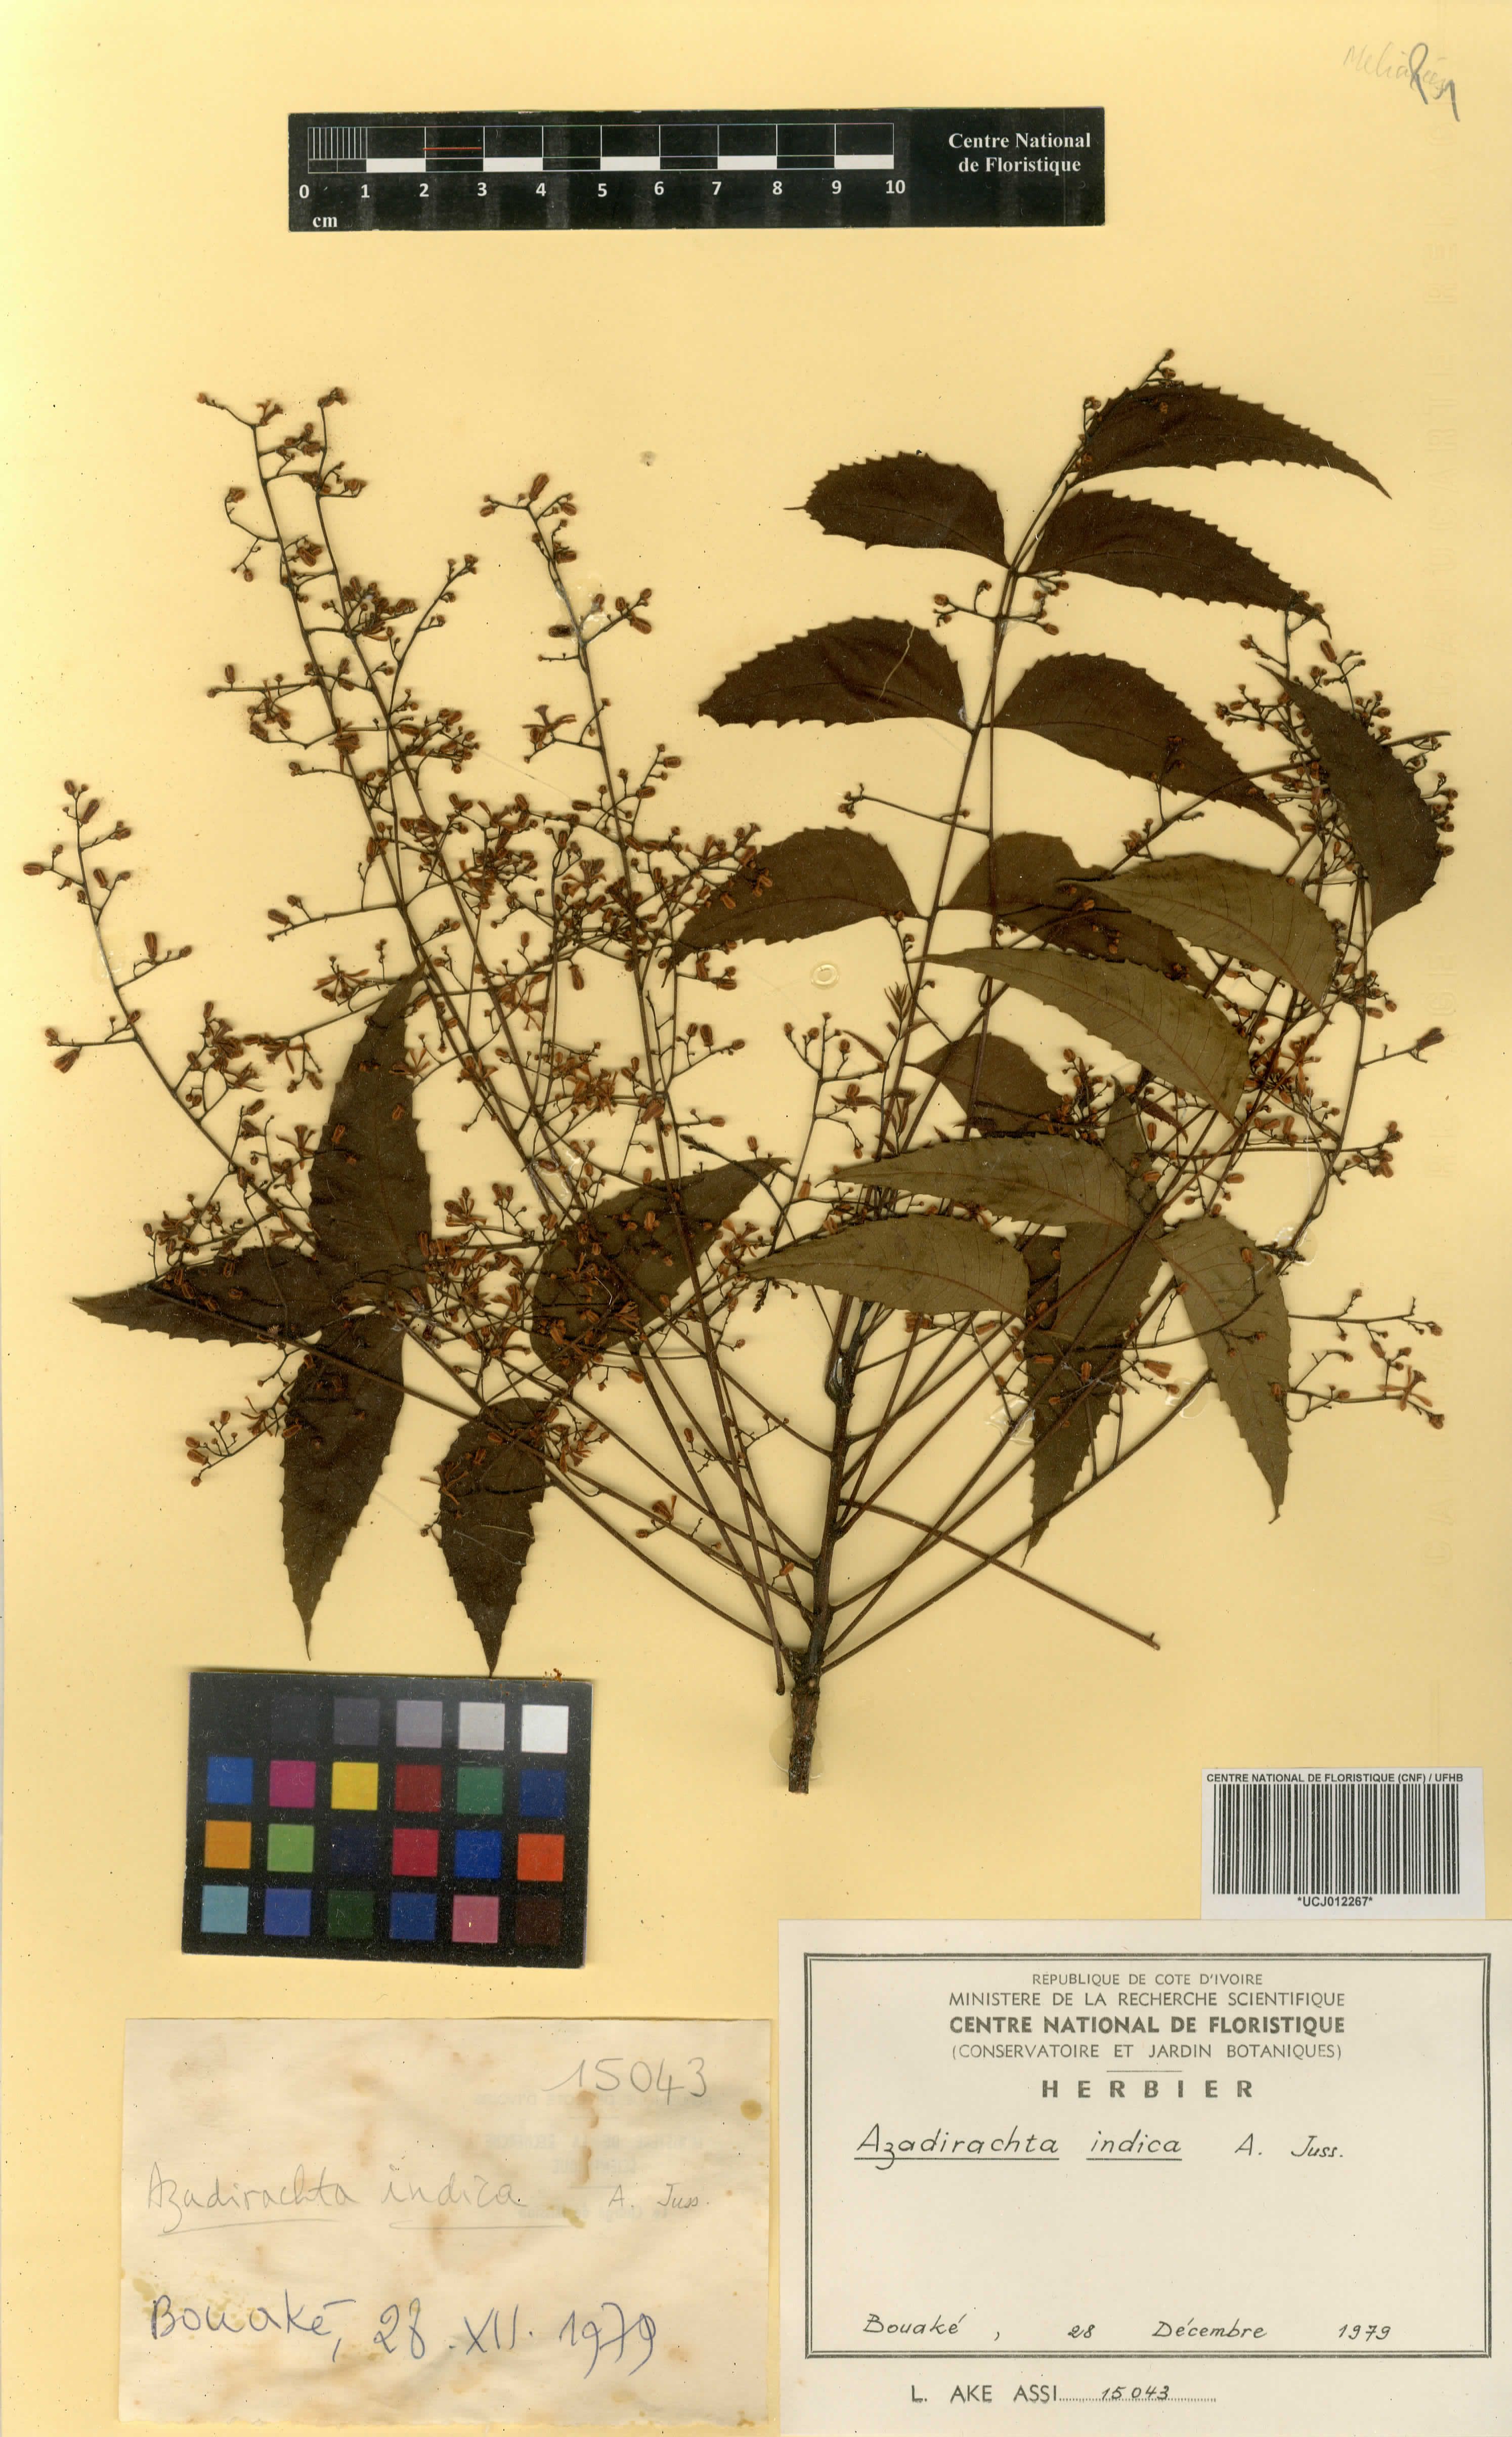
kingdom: Plantae
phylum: Tracheophyta
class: Magnoliopsida
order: Sapindales
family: Meliaceae
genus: Azadirachta
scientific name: Azadirachta indica
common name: Neem
